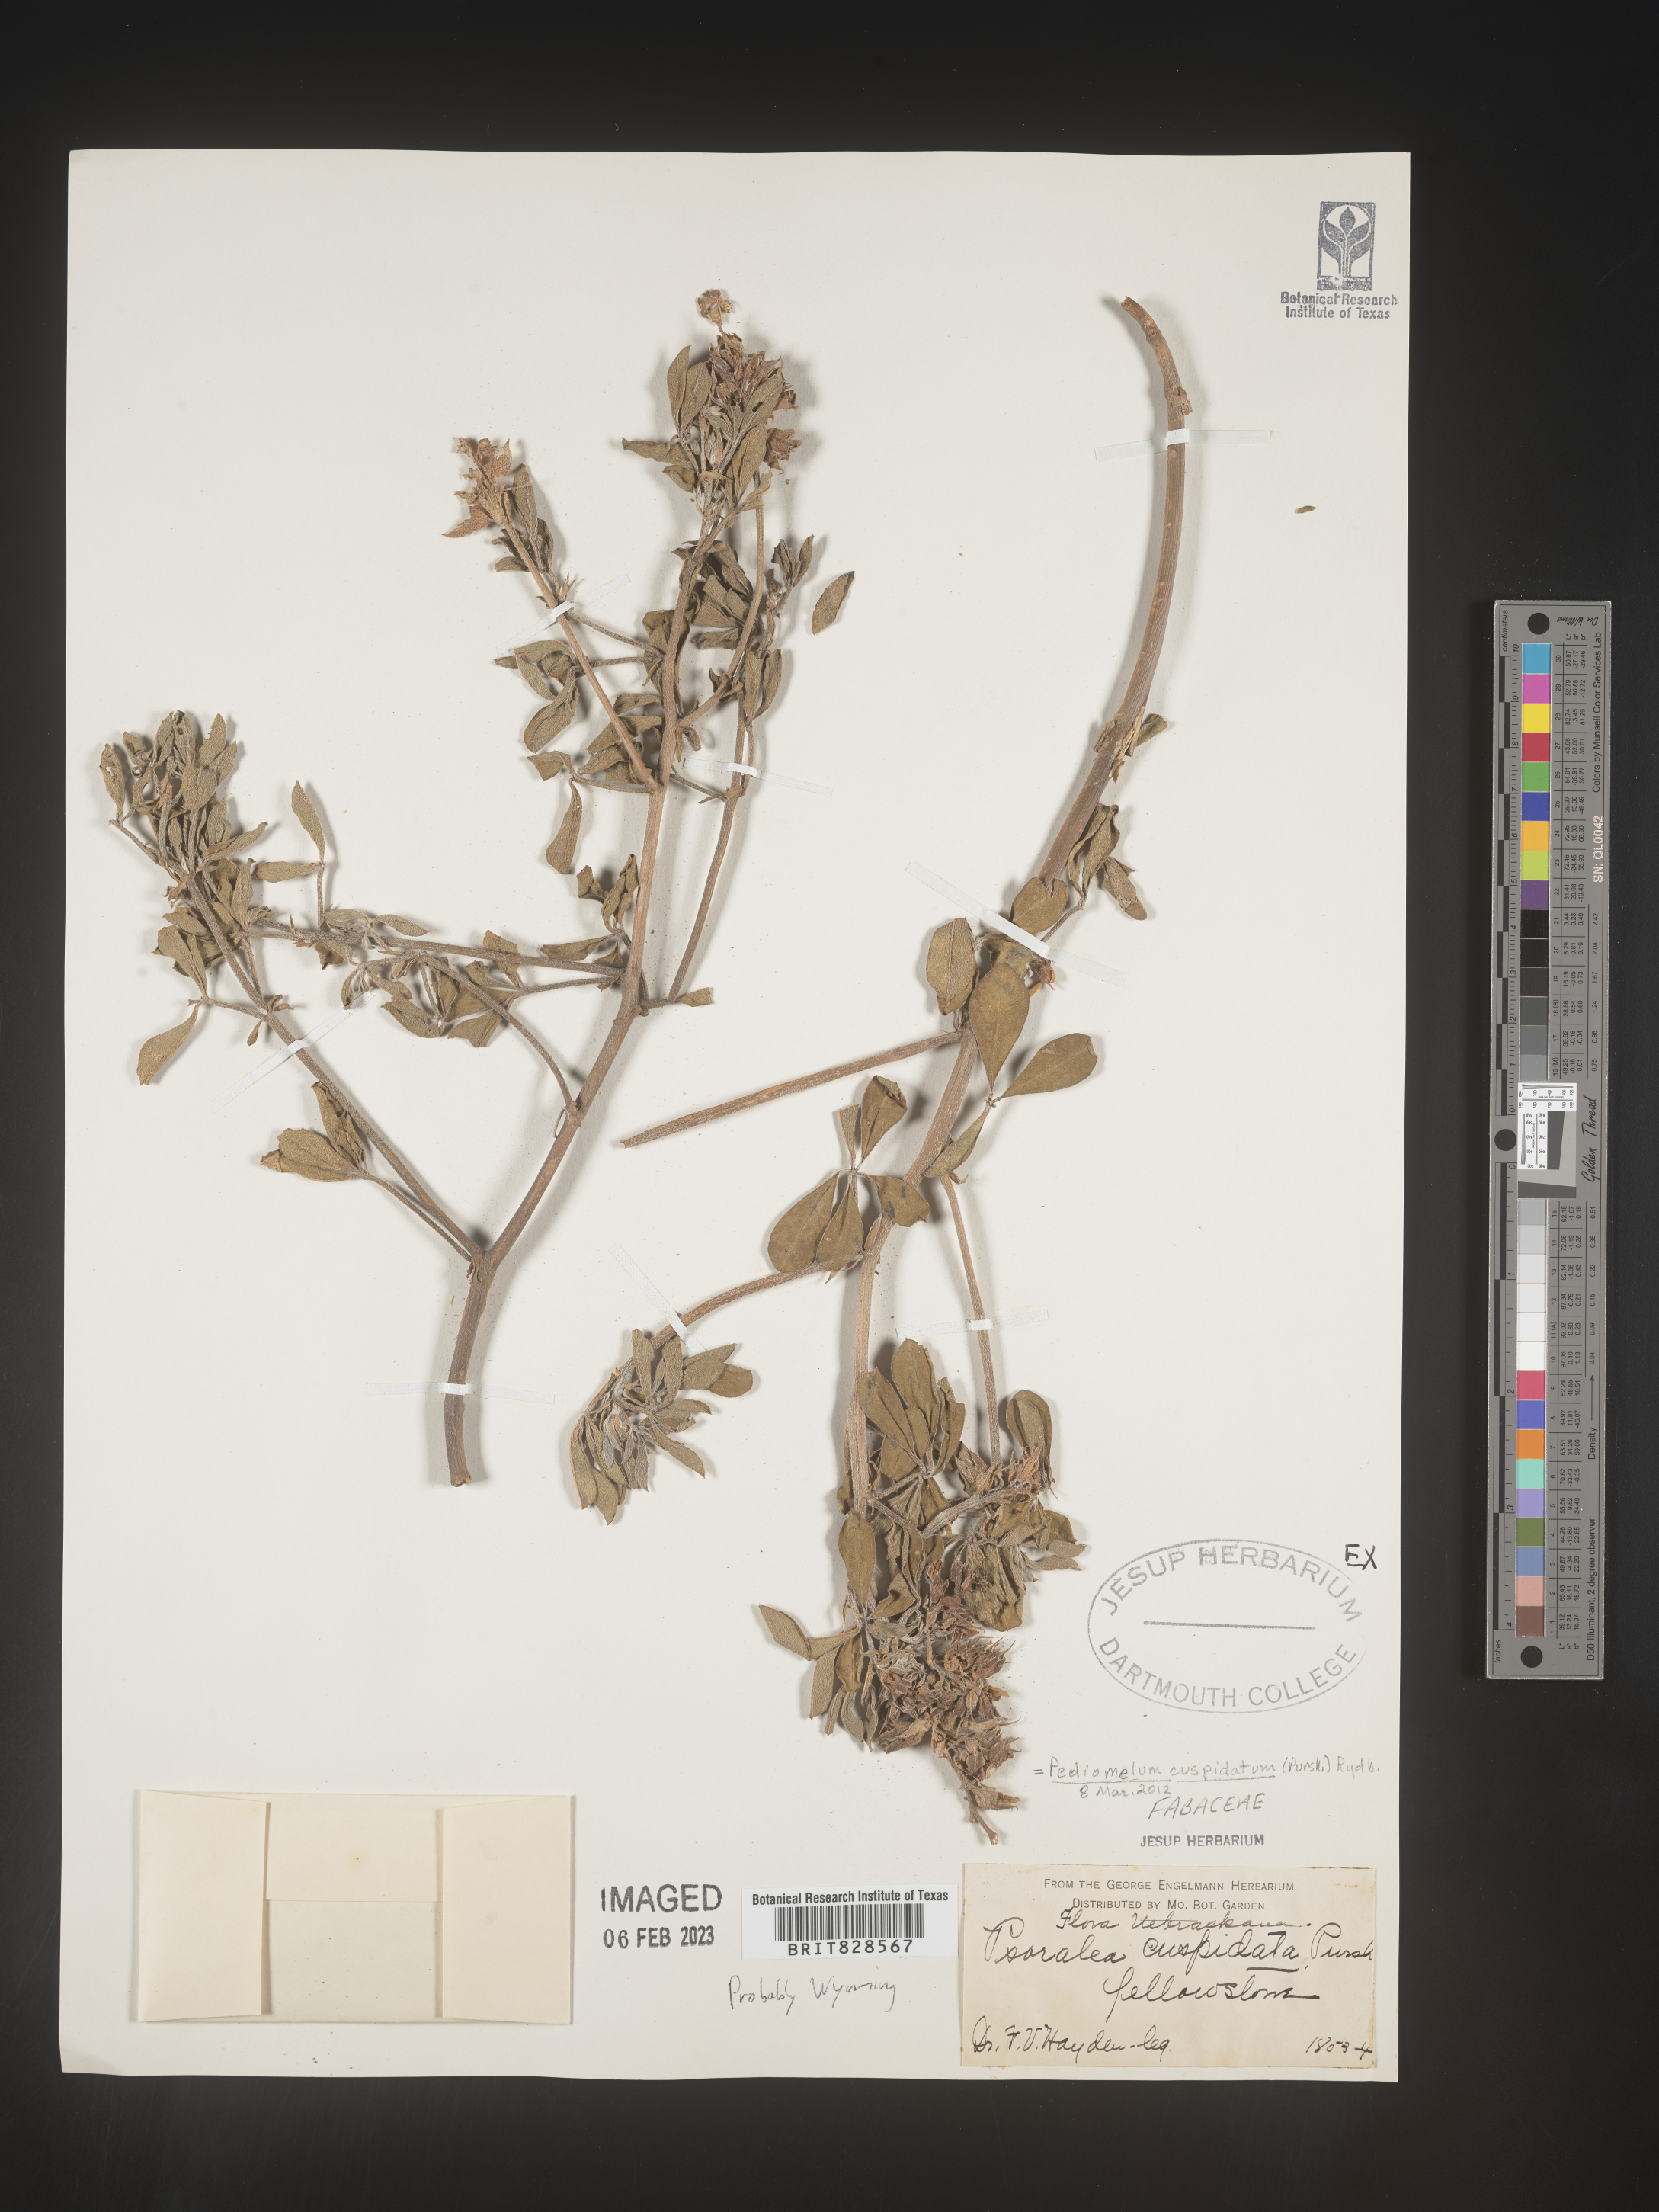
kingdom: Plantae
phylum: Tracheophyta
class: Magnoliopsida
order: Fabales
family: Fabaceae
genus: Pediomelum
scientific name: Pediomelum
